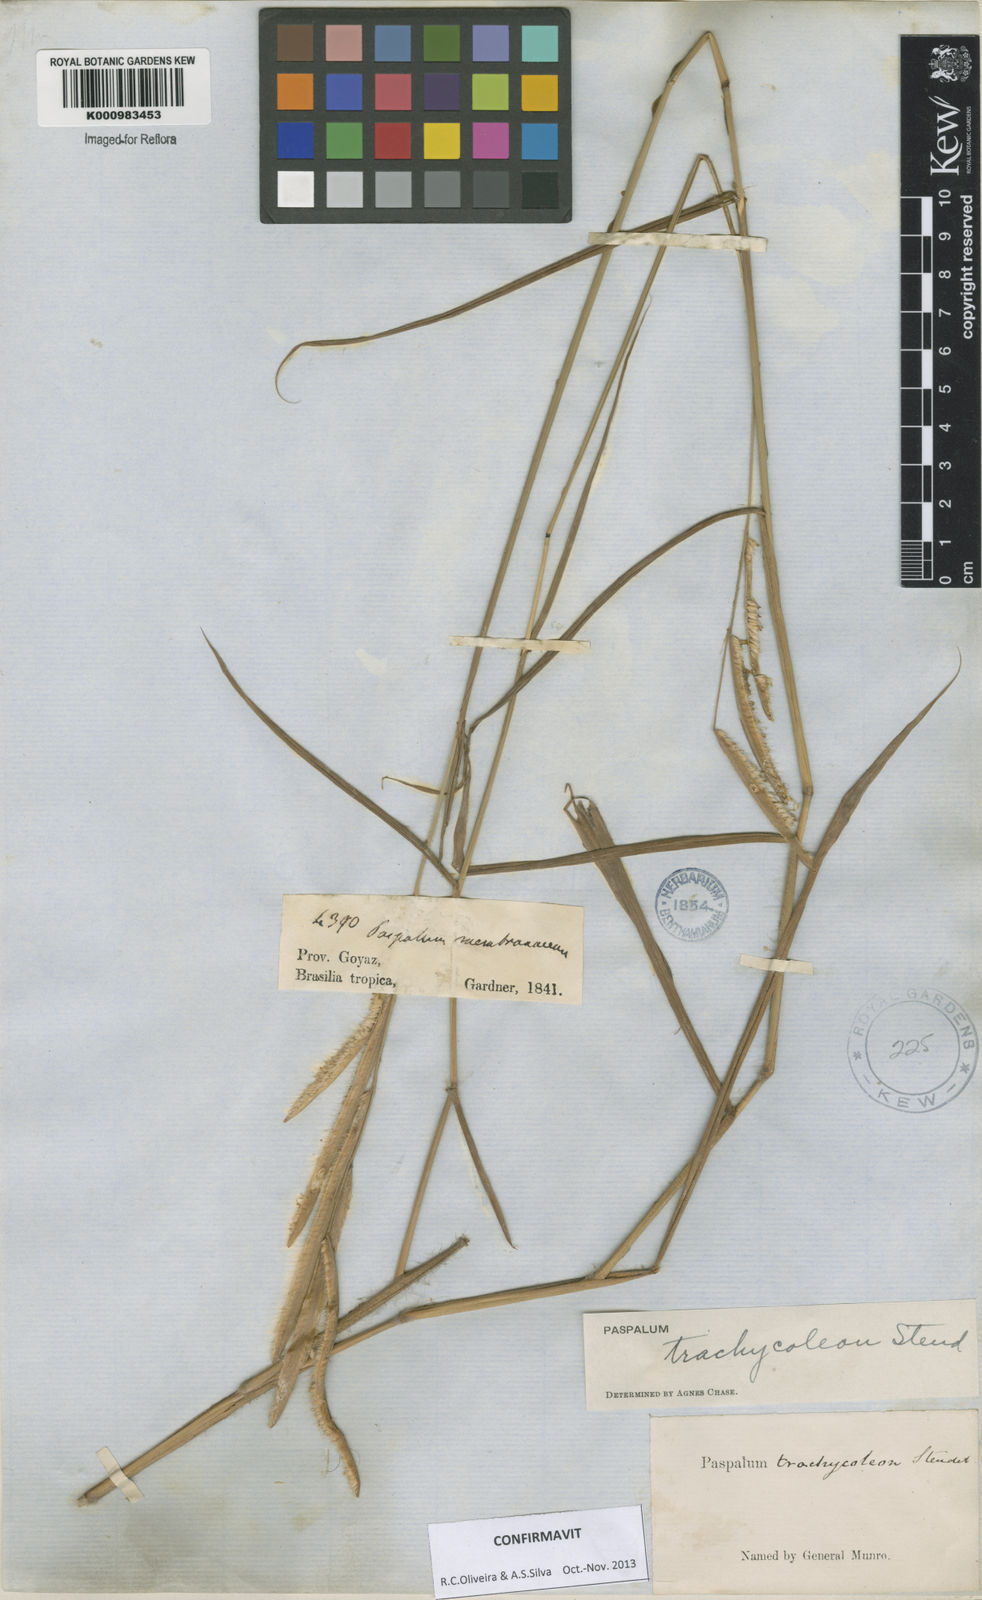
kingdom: Plantae
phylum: Tracheophyta
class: Liliopsida
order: Poales
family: Poaceae
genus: Paspalum
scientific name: Paspalum trachycoleon
